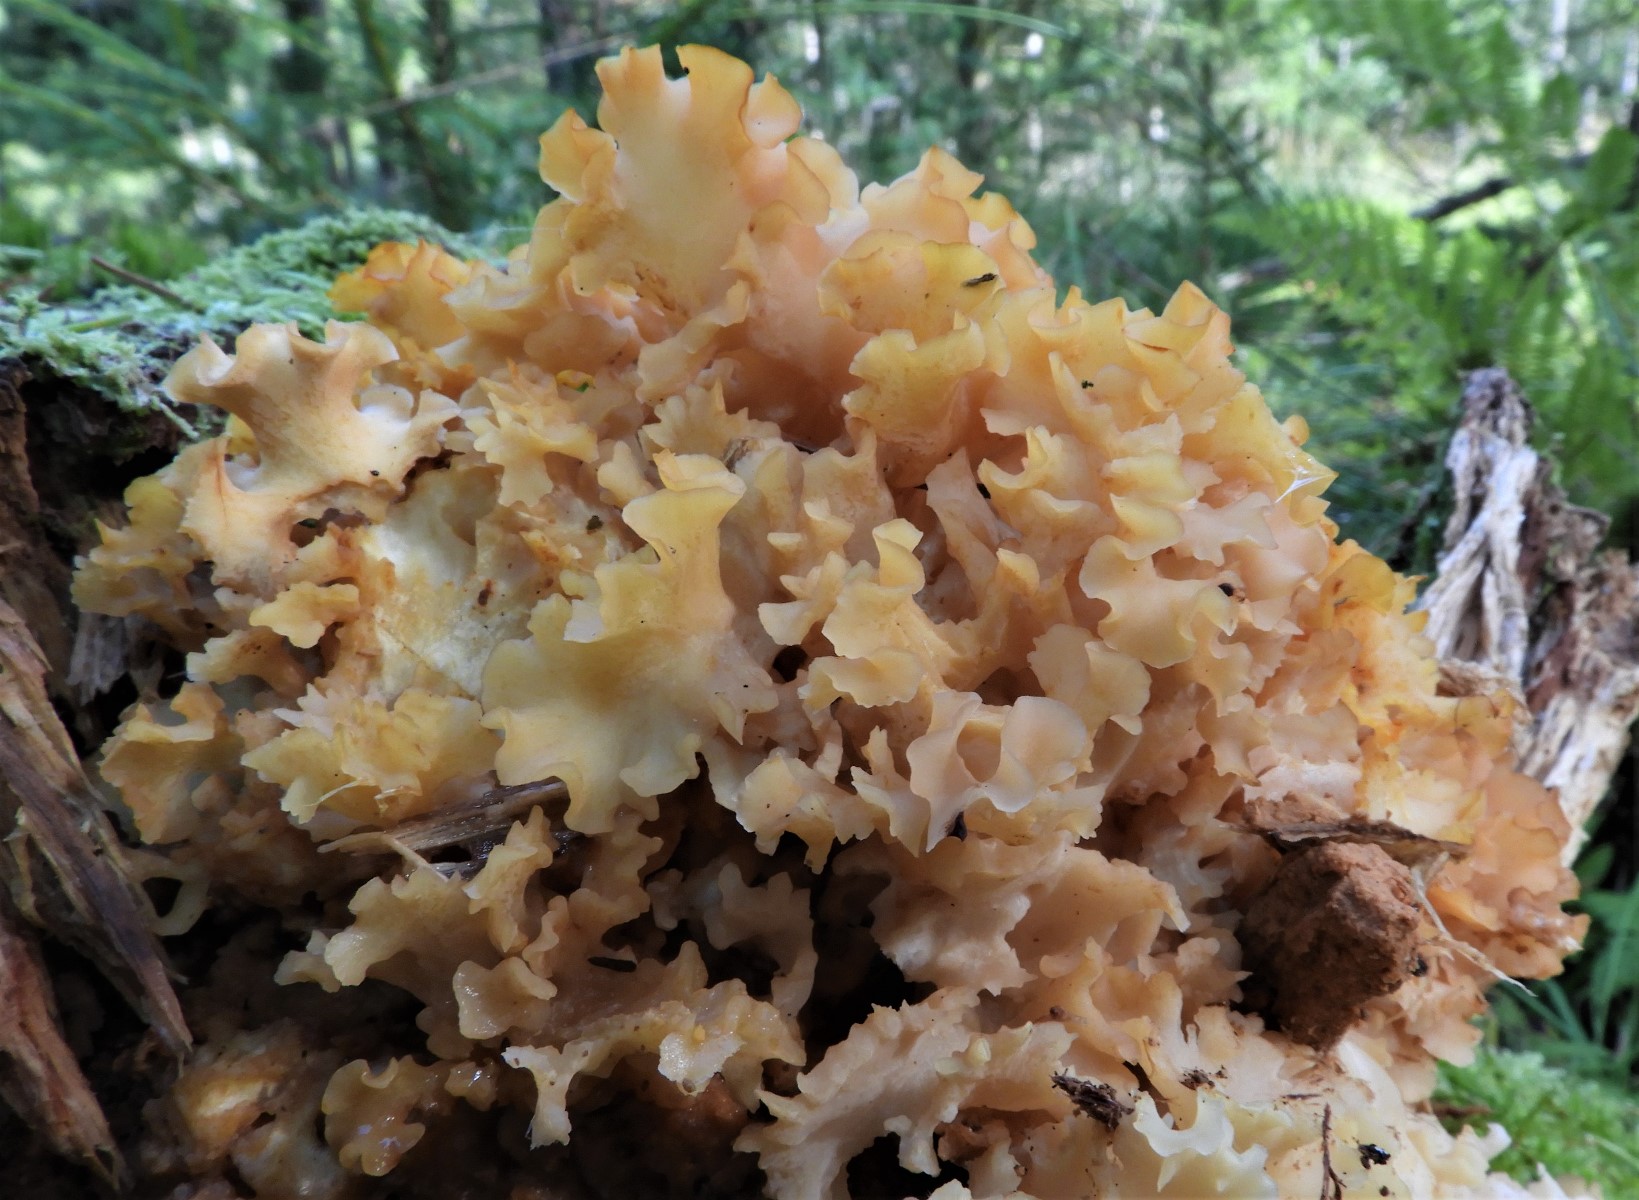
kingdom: Fungi
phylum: Basidiomycota
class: Agaricomycetes
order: Polyporales
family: Sparassidaceae
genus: Sparassis
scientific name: Sparassis crispa
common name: kruset blomkålssvamp
